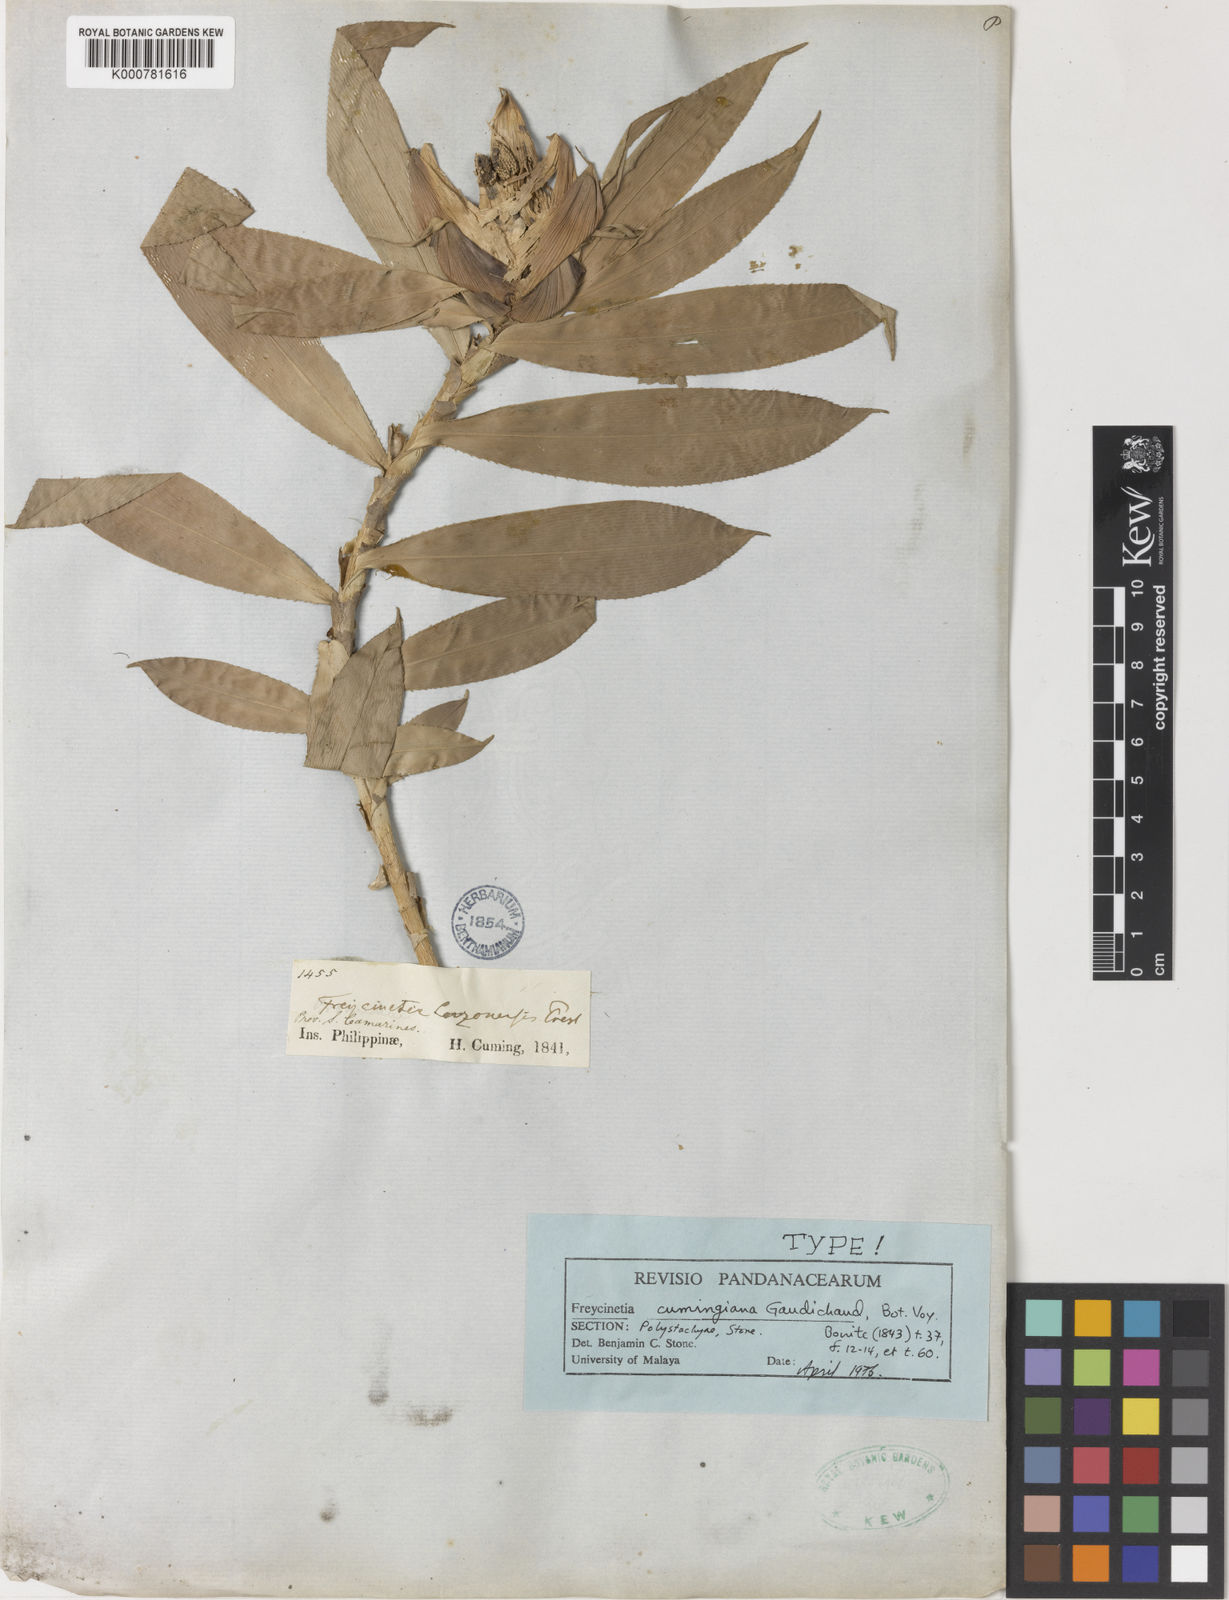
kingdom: Plantae
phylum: Tracheophyta
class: Liliopsida
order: Pandanales
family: Pandanaceae
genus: Freycinetia
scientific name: Freycinetia
